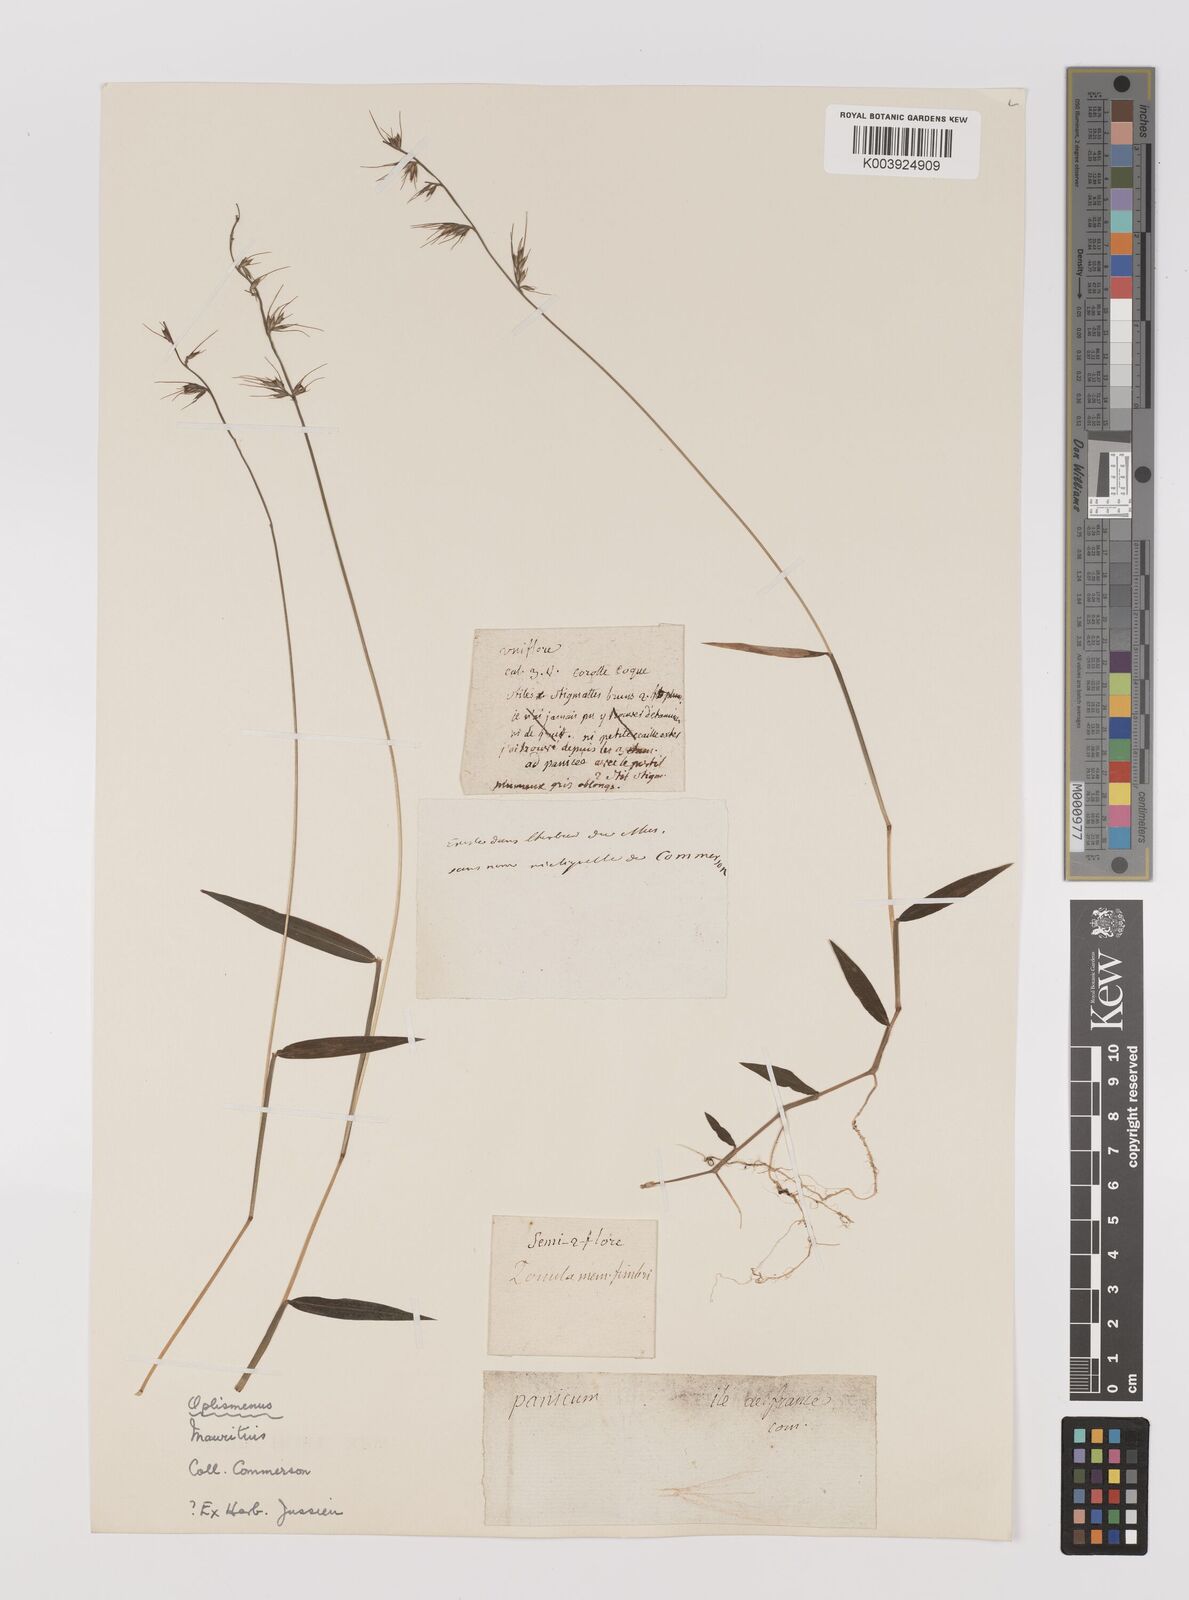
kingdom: Plantae
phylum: Tracheophyta
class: Liliopsida
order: Poales
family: Poaceae
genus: Oplismenus
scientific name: Oplismenus hirtellus
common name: Basketgrass
